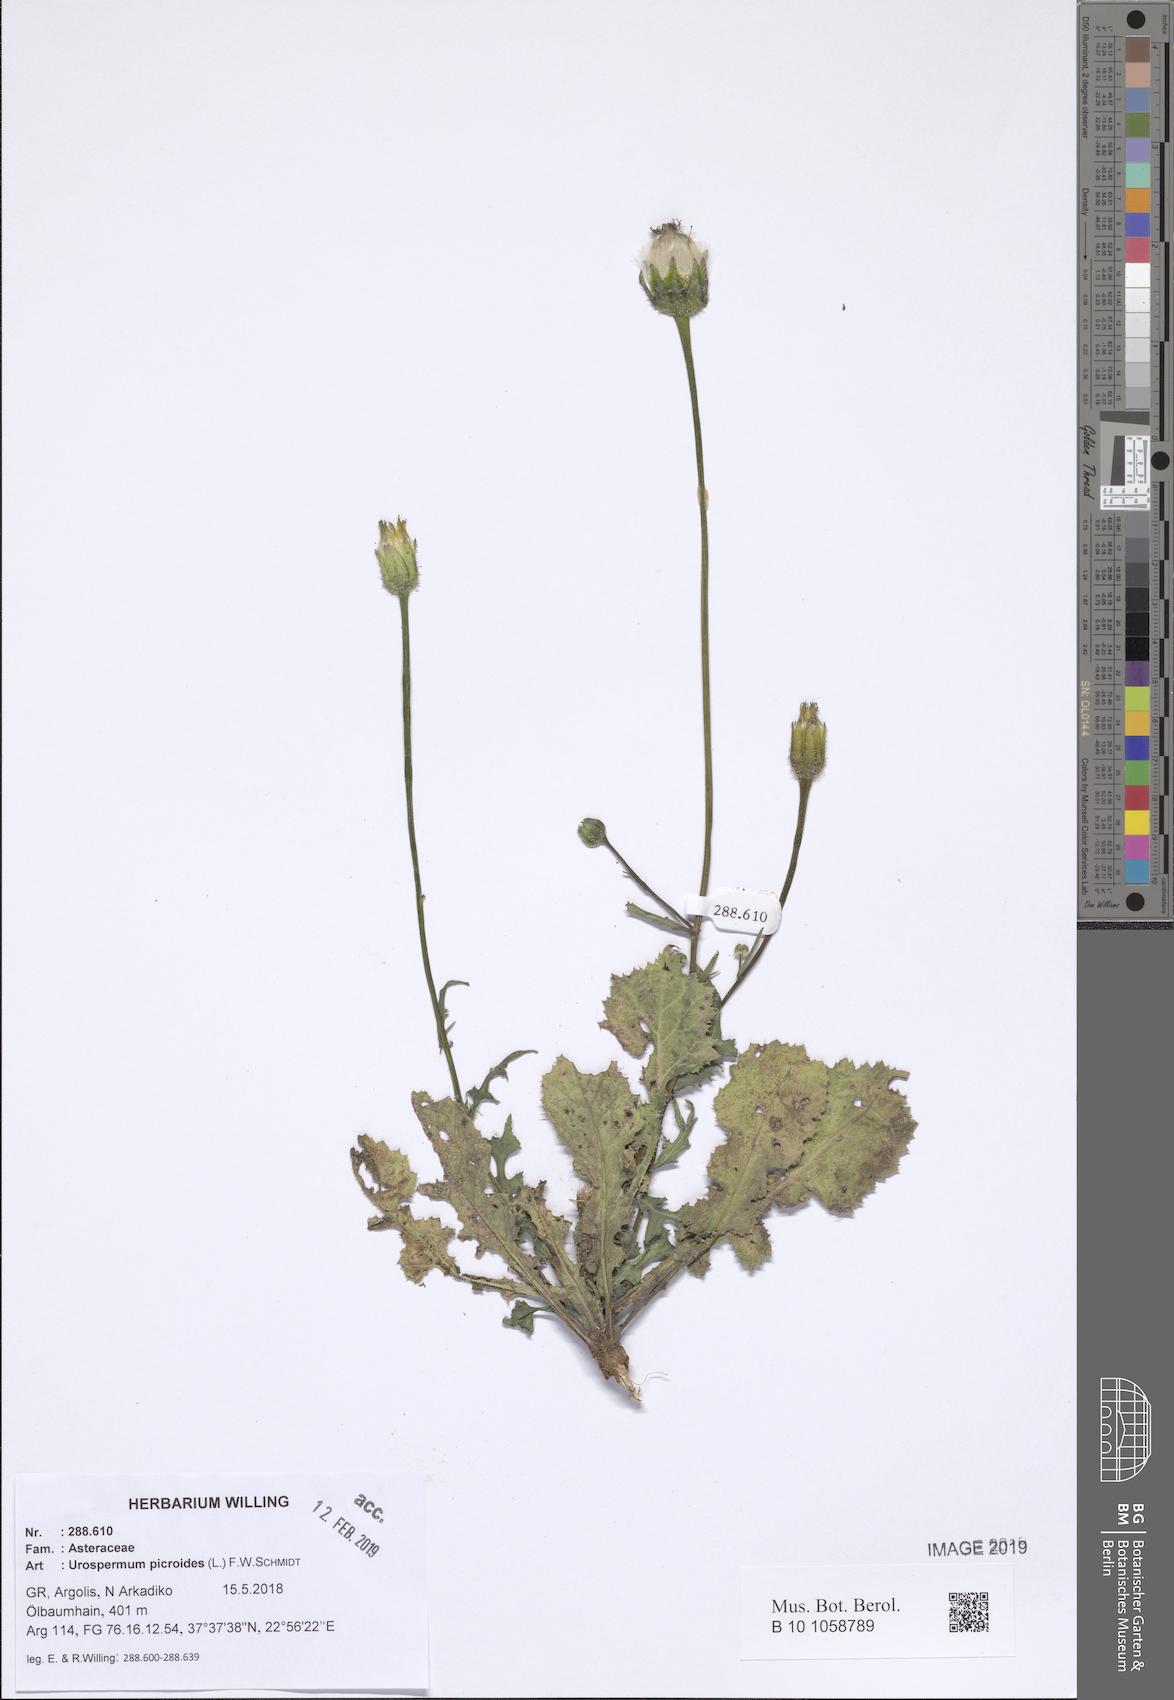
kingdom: Plantae
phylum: Tracheophyta
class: Magnoliopsida
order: Asterales
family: Asteraceae
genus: Urospermum
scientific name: Urospermum picroides
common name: False hawkbit
